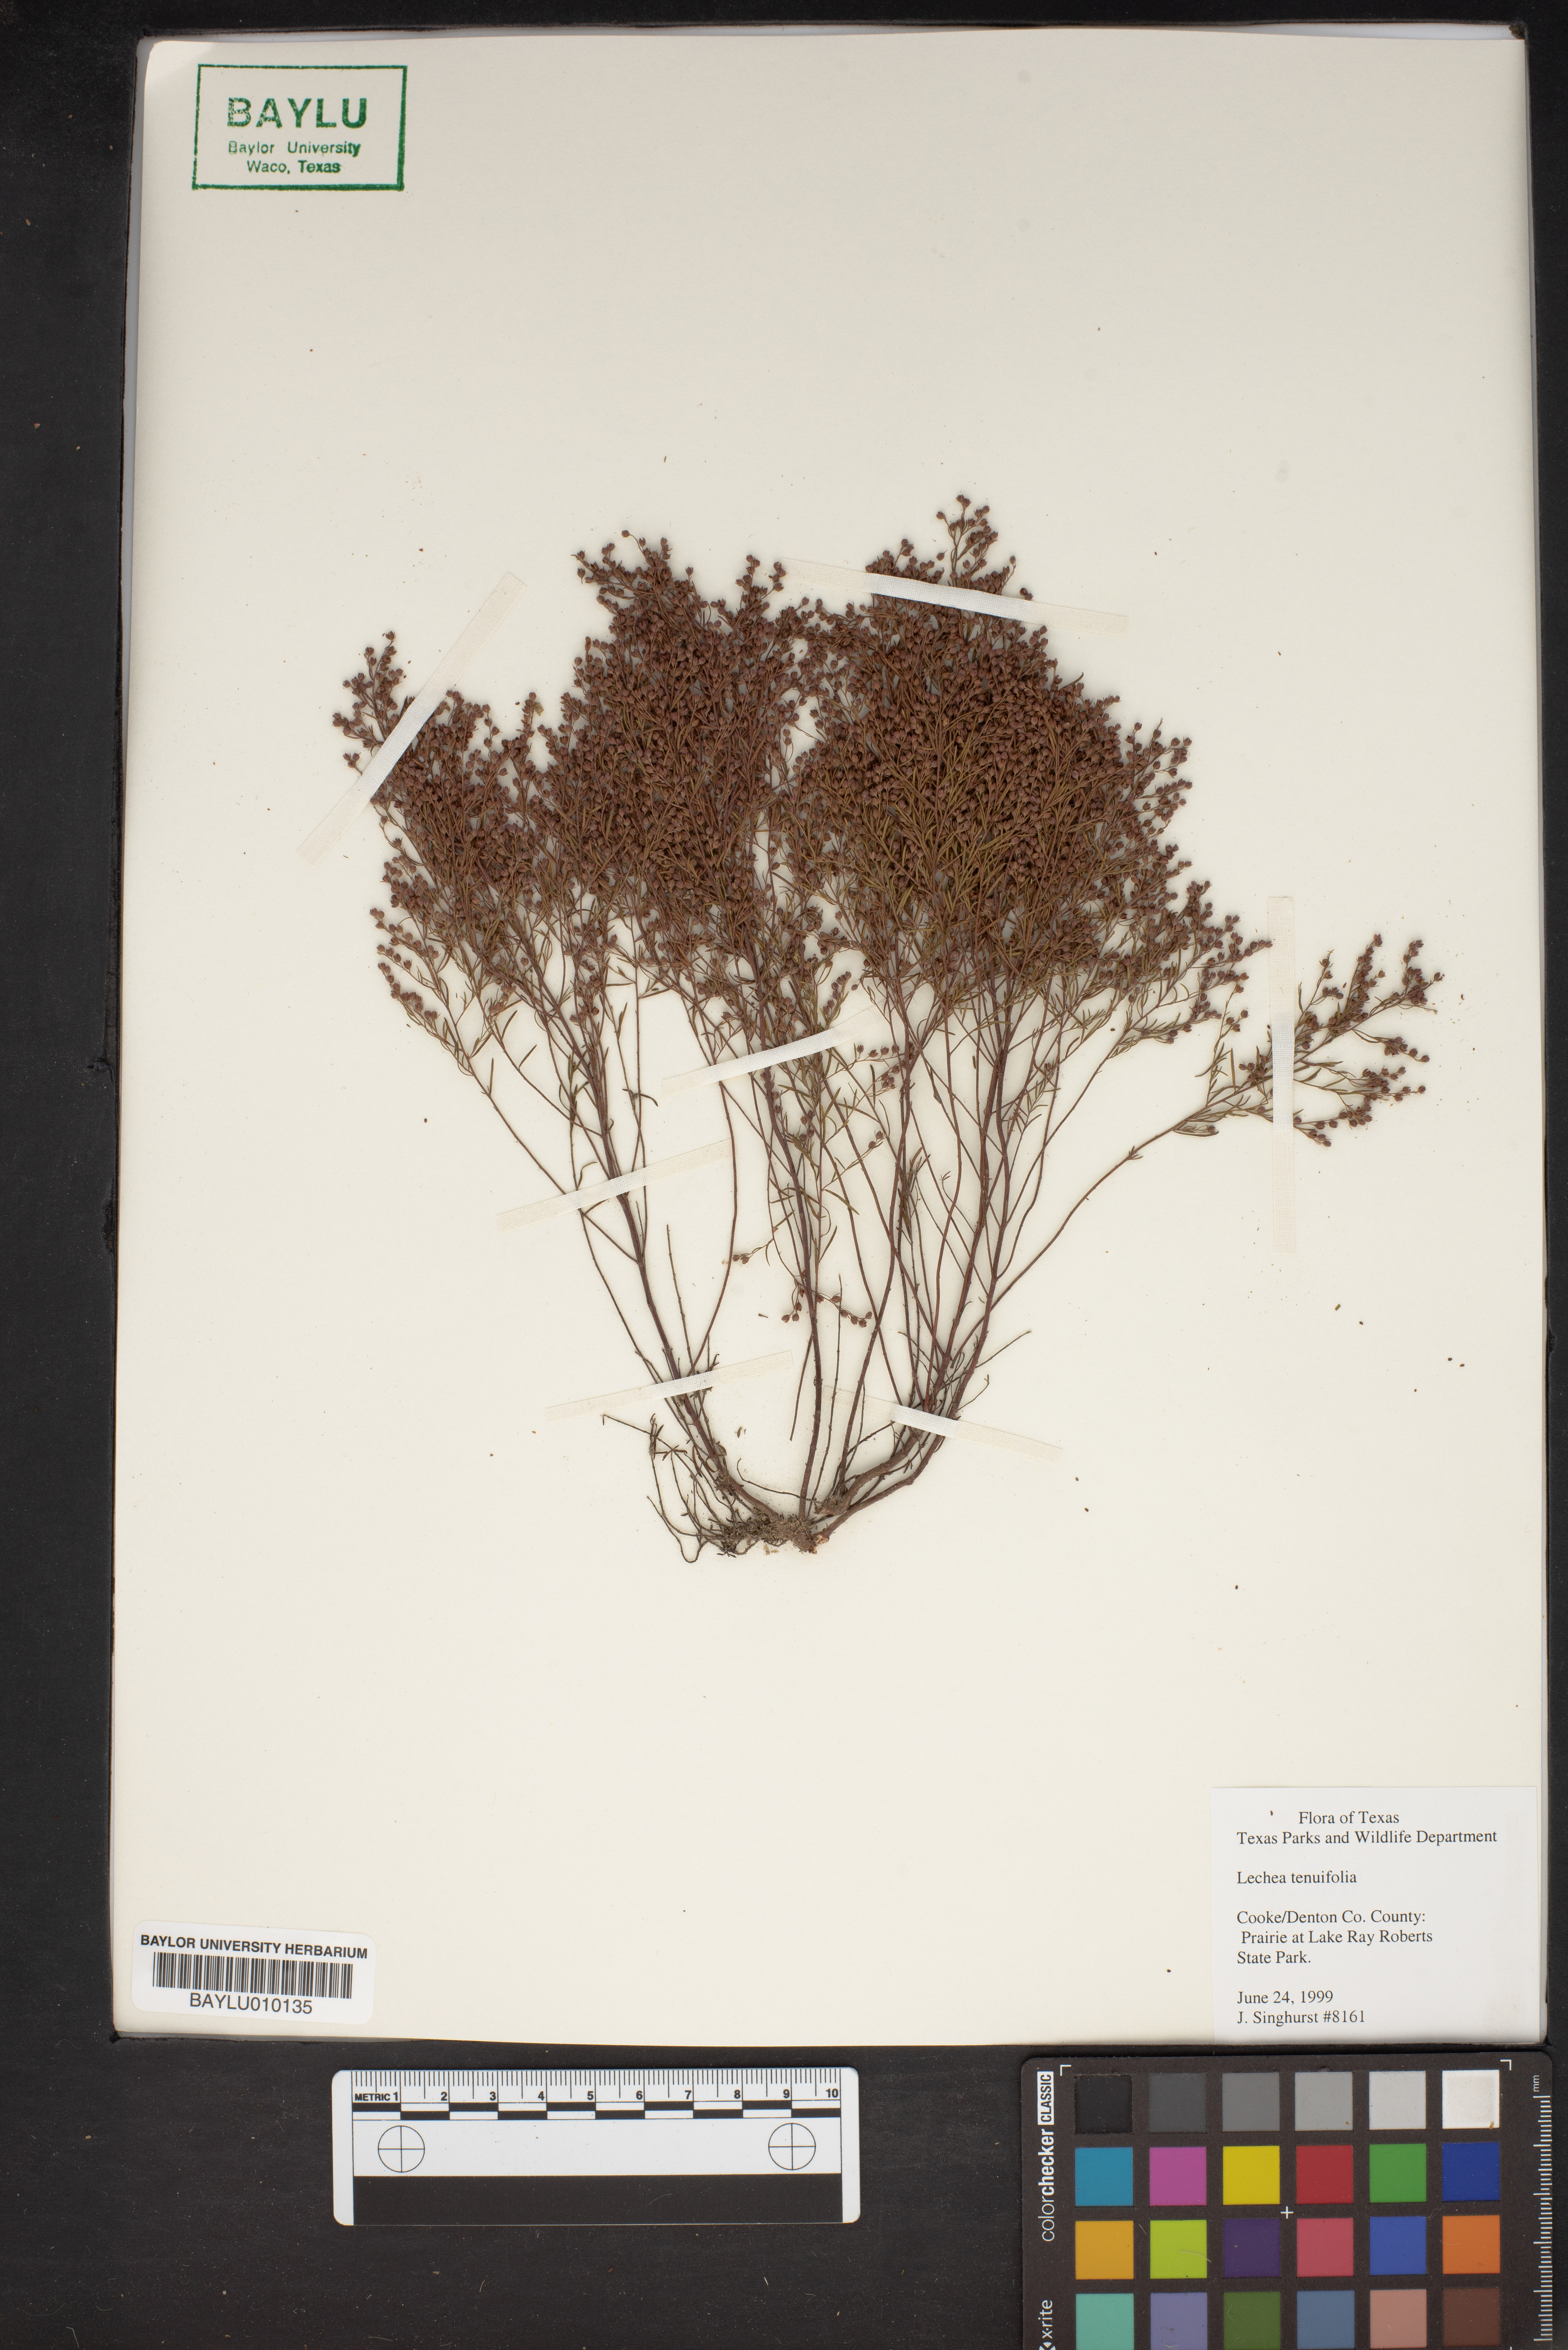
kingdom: Plantae
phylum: Tracheophyta
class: Magnoliopsida
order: Malvales
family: Cistaceae
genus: Lechea
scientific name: Lechea tenuifolia
